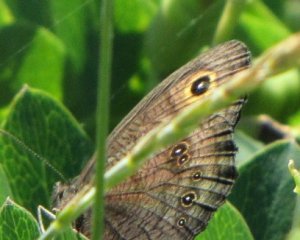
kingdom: Animalia
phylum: Arthropoda
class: Insecta
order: Lepidoptera
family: Nymphalidae
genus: Cercyonis
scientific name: Cercyonis pegala
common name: Common Wood-Nymph
